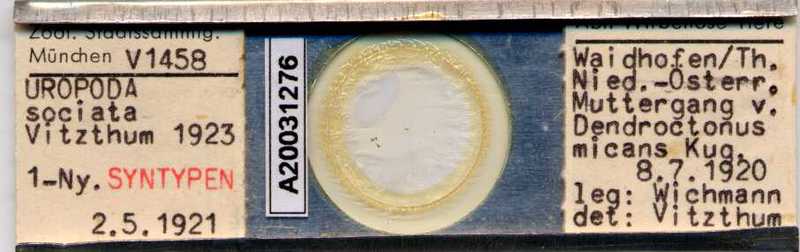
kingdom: Animalia
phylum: Arthropoda
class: Arachnida
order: Mesostigmata
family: Trematuridae
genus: Trichouropoda
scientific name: Trichouropoda sociata
